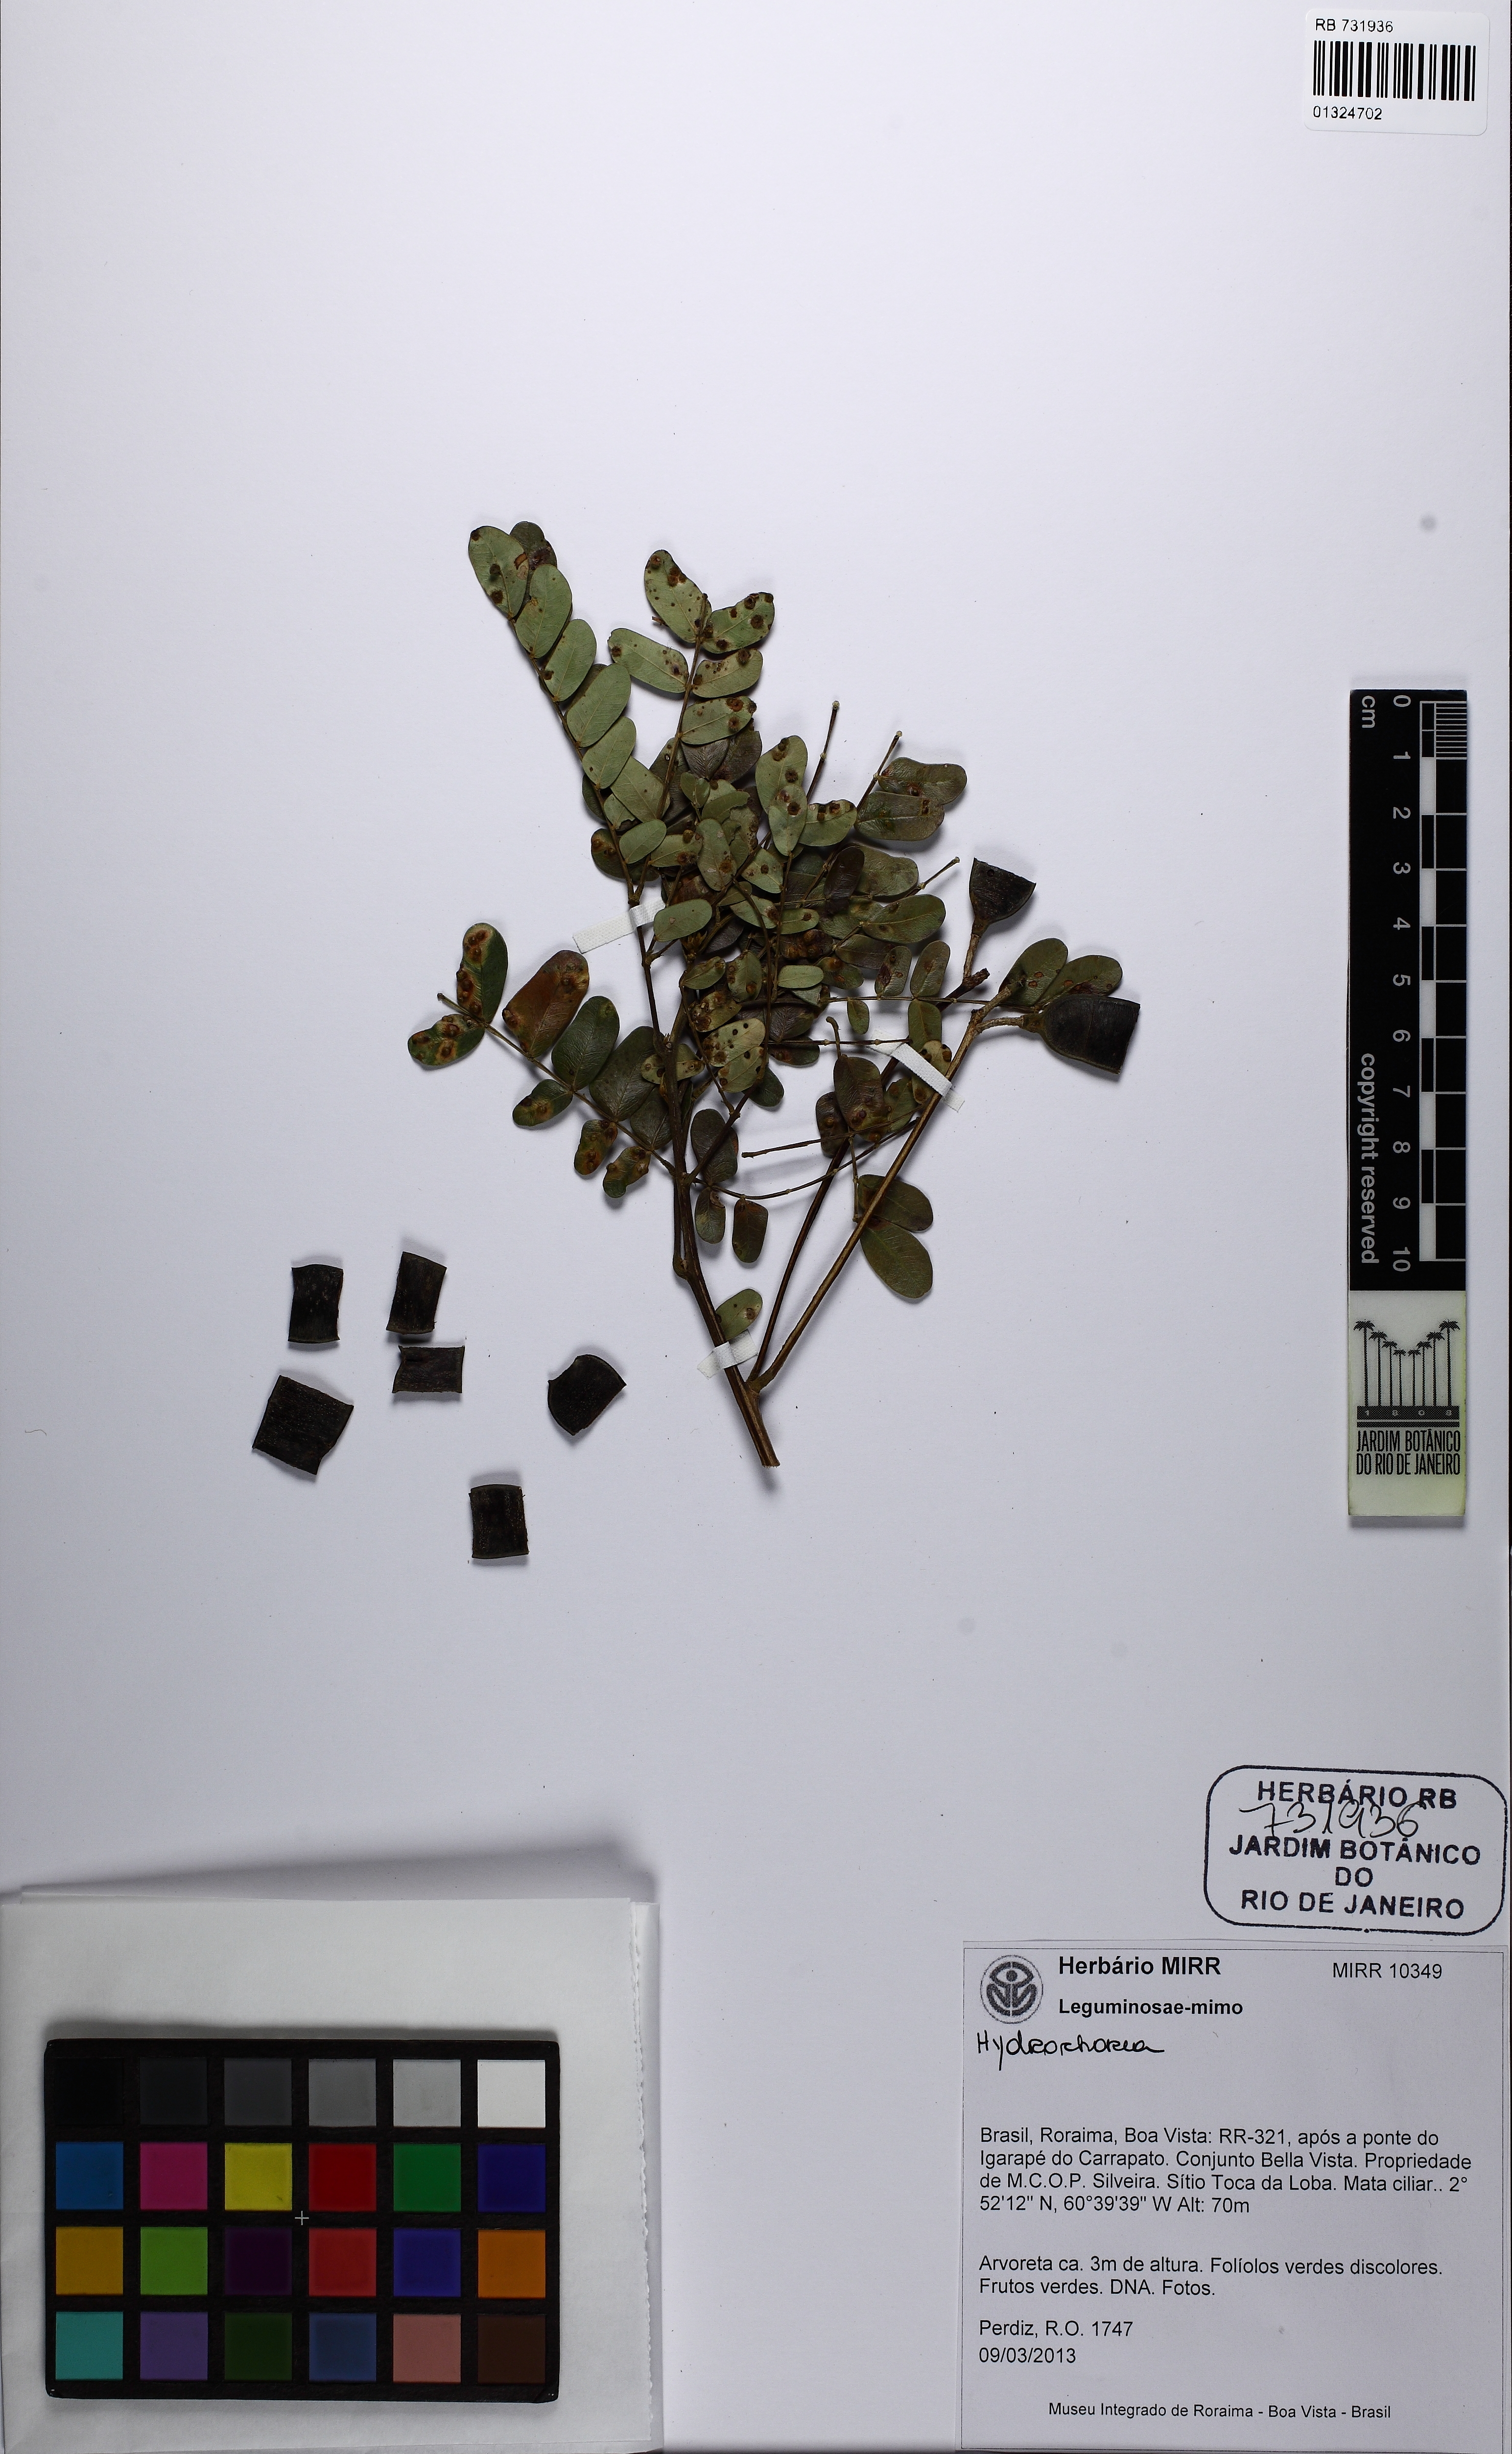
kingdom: Plantae
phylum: Tracheophyta
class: Magnoliopsida
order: Fabales
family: Fabaceae
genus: Hydrochorea
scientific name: Hydrochorea corymbosa
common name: Swamp manariballi
